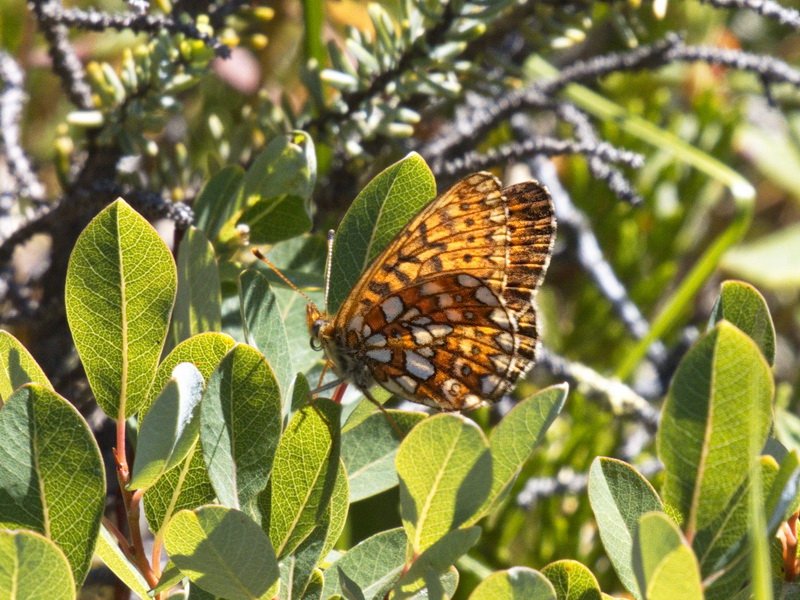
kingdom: Animalia
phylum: Arthropoda
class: Insecta
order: Lepidoptera
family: Nymphalidae
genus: Boloria
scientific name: Boloria eunomia
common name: Bog Fritillary
